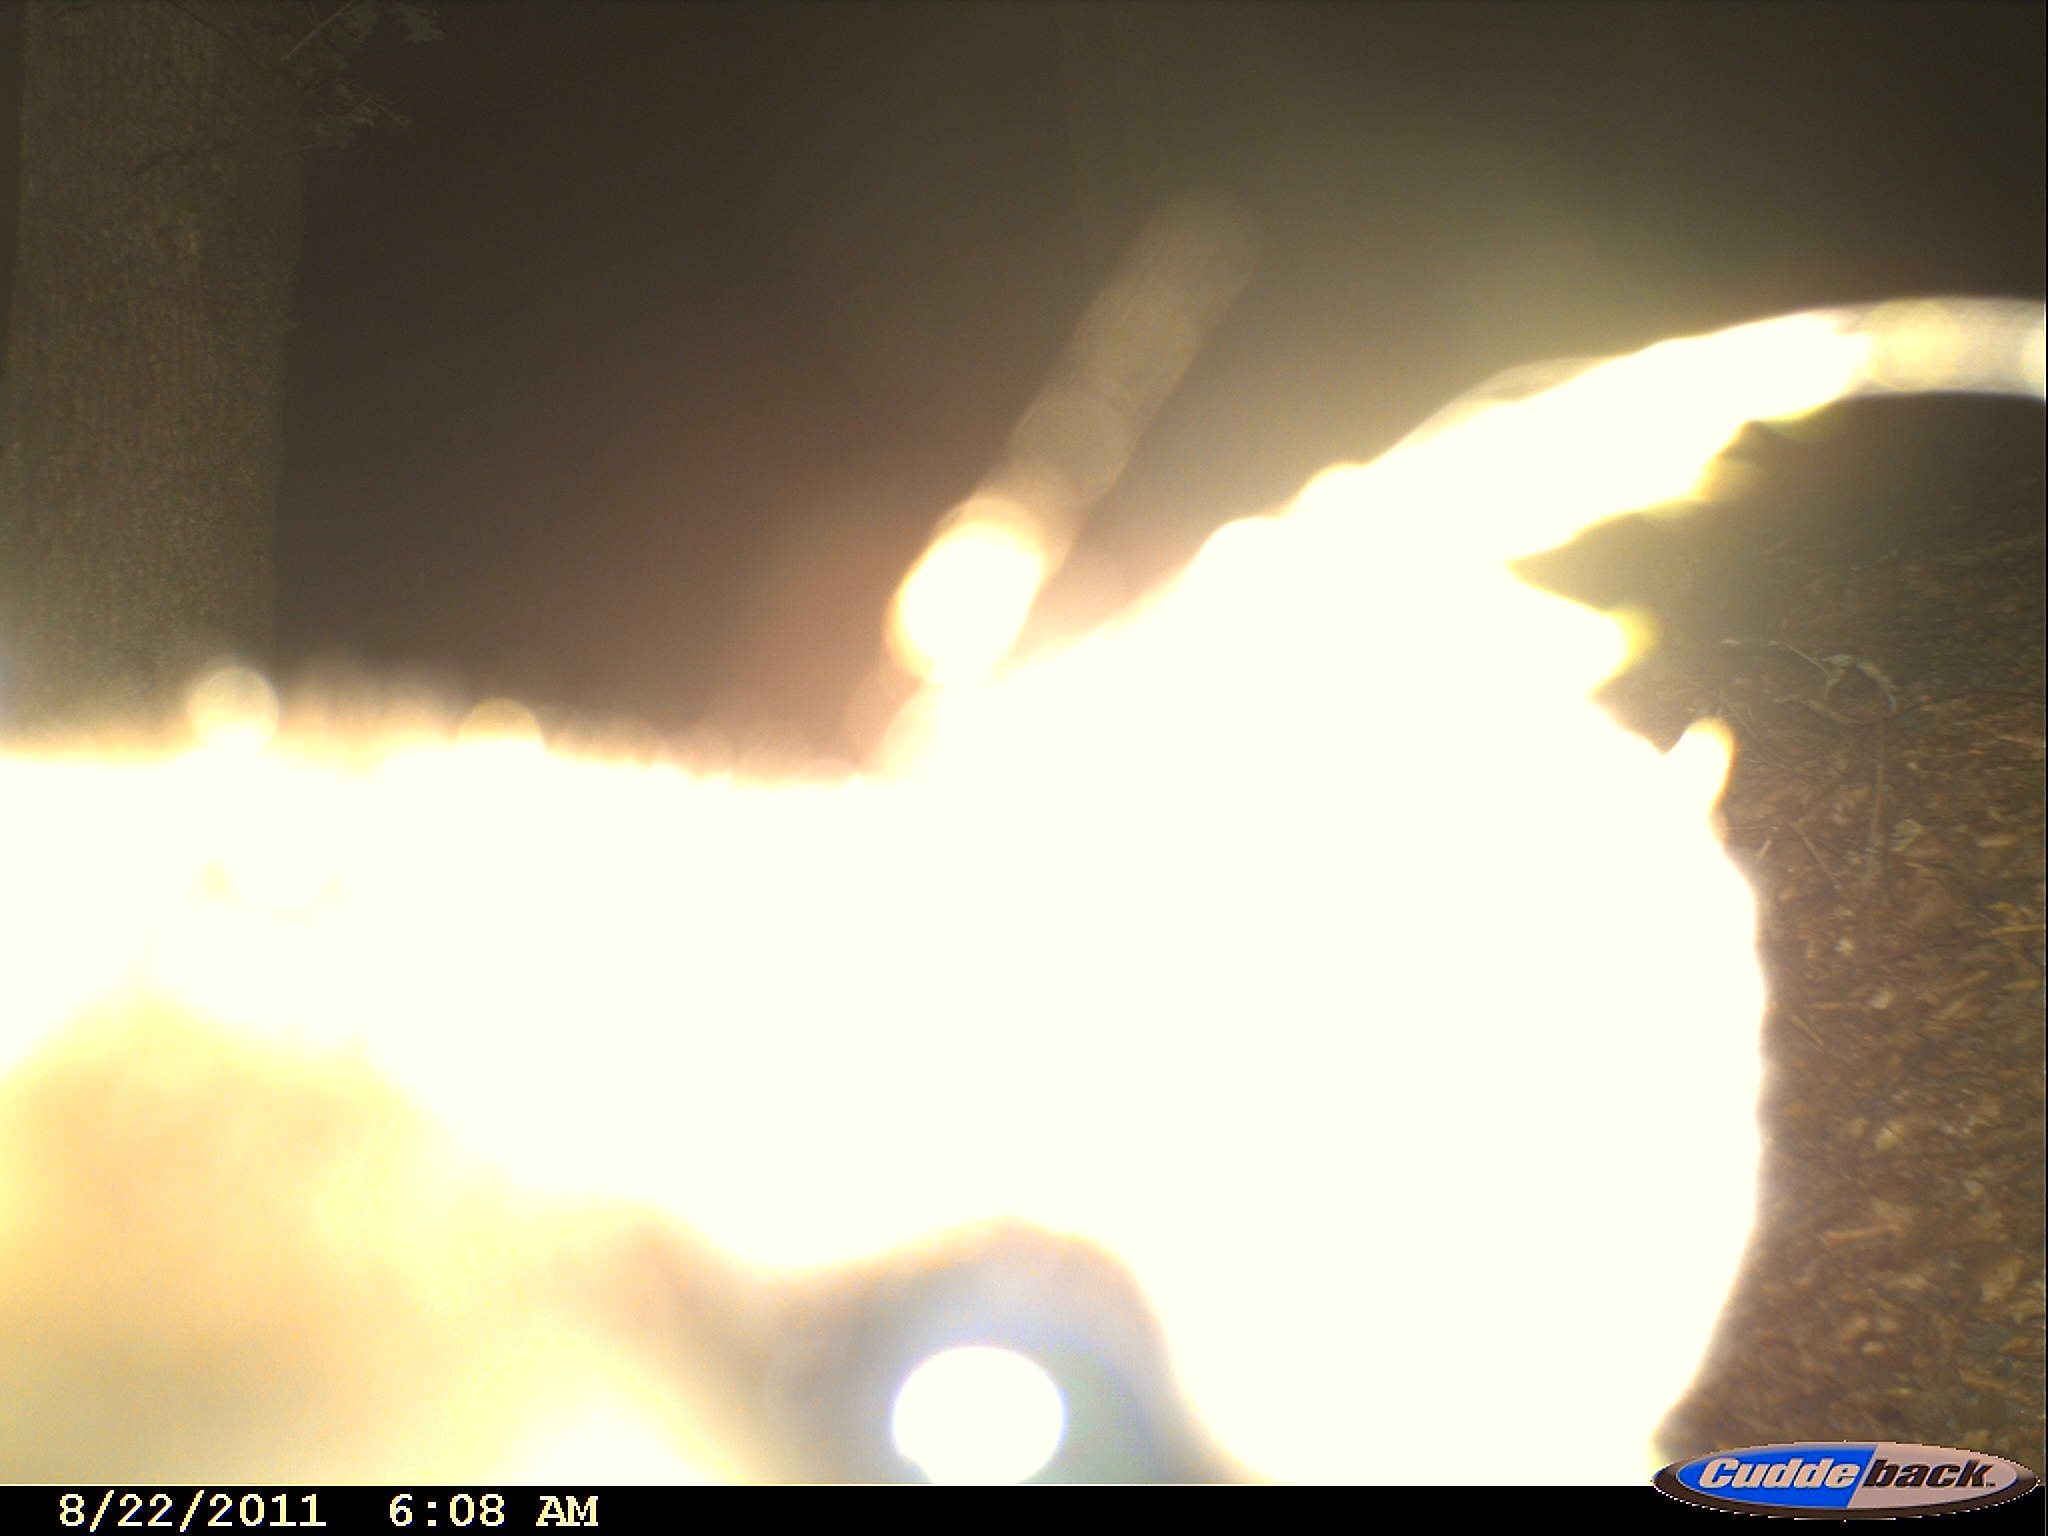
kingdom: Animalia
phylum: Chordata
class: Mammalia
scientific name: Mammalia
